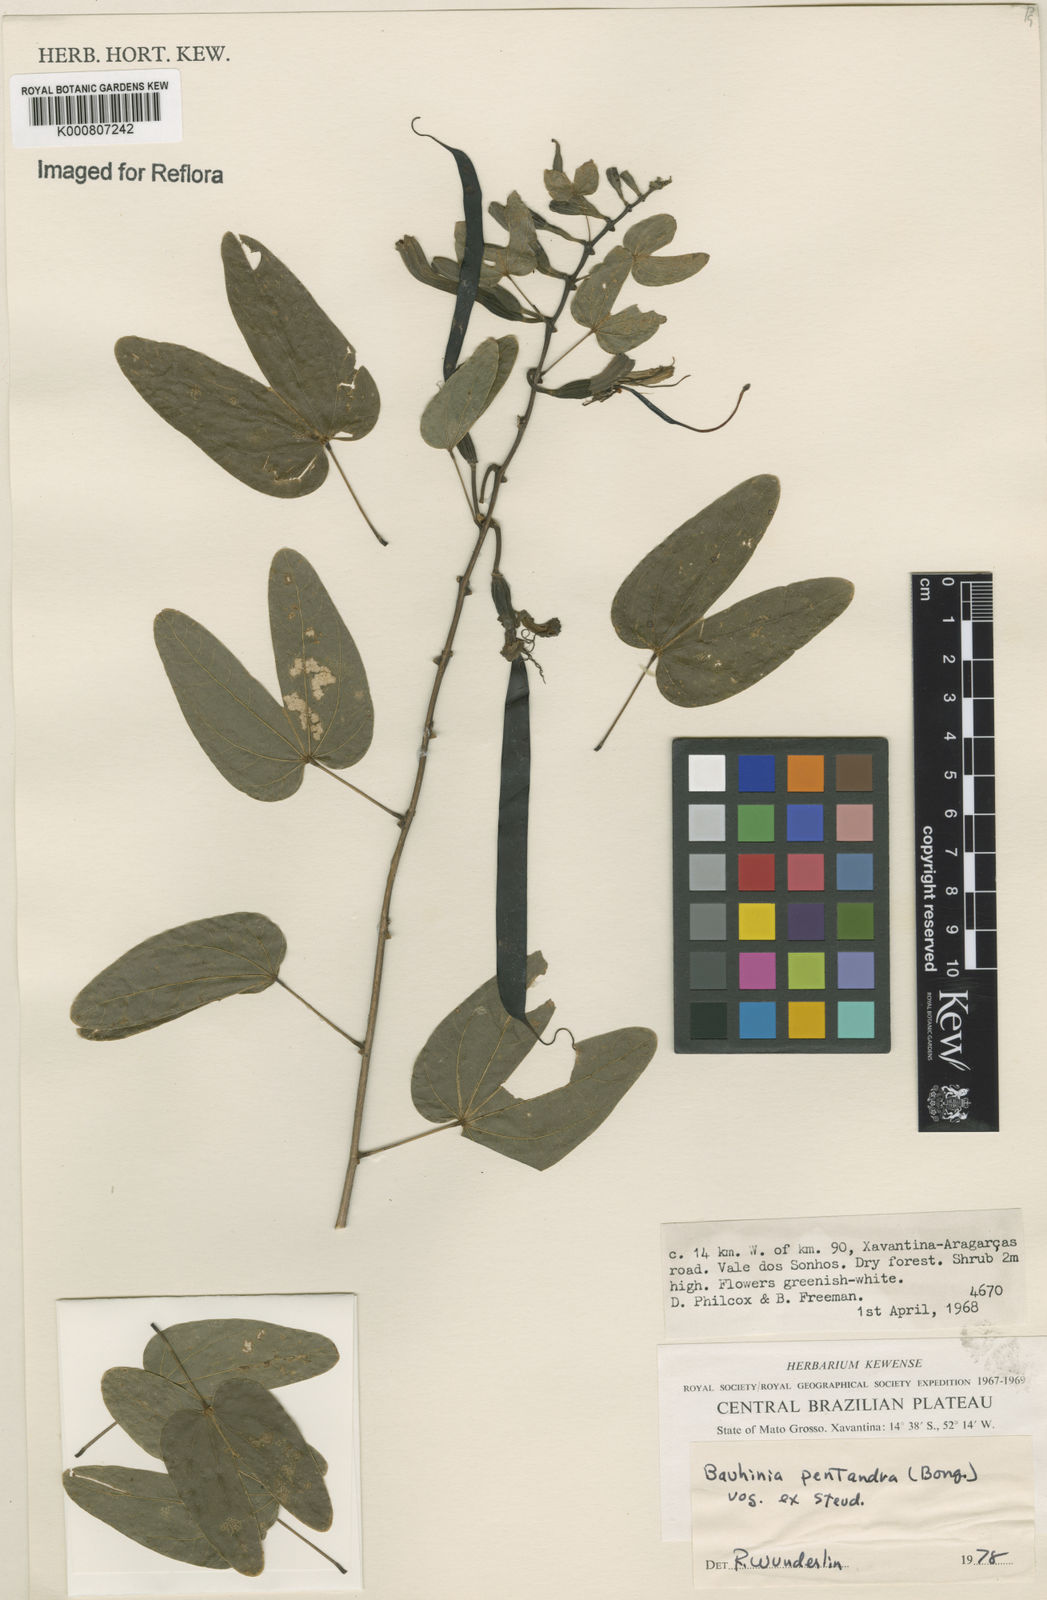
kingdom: Plantae
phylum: Tracheophyta
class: Magnoliopsida
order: Fabales
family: Fabaceae
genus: Bauhinia
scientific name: Bauhinia
